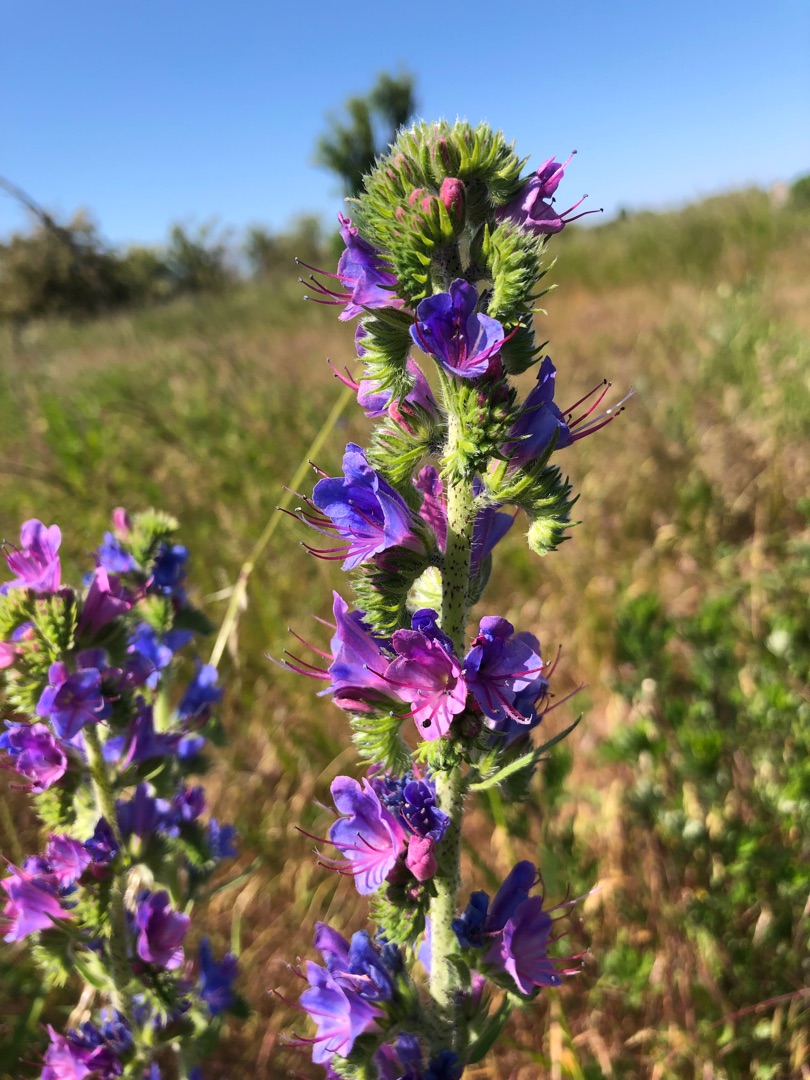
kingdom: Plantae
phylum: Tracheophyta
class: Magnoliopsida
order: Boraginales
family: Boraginaceae
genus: Echium
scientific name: Echium vulgare
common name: Slangehoved
